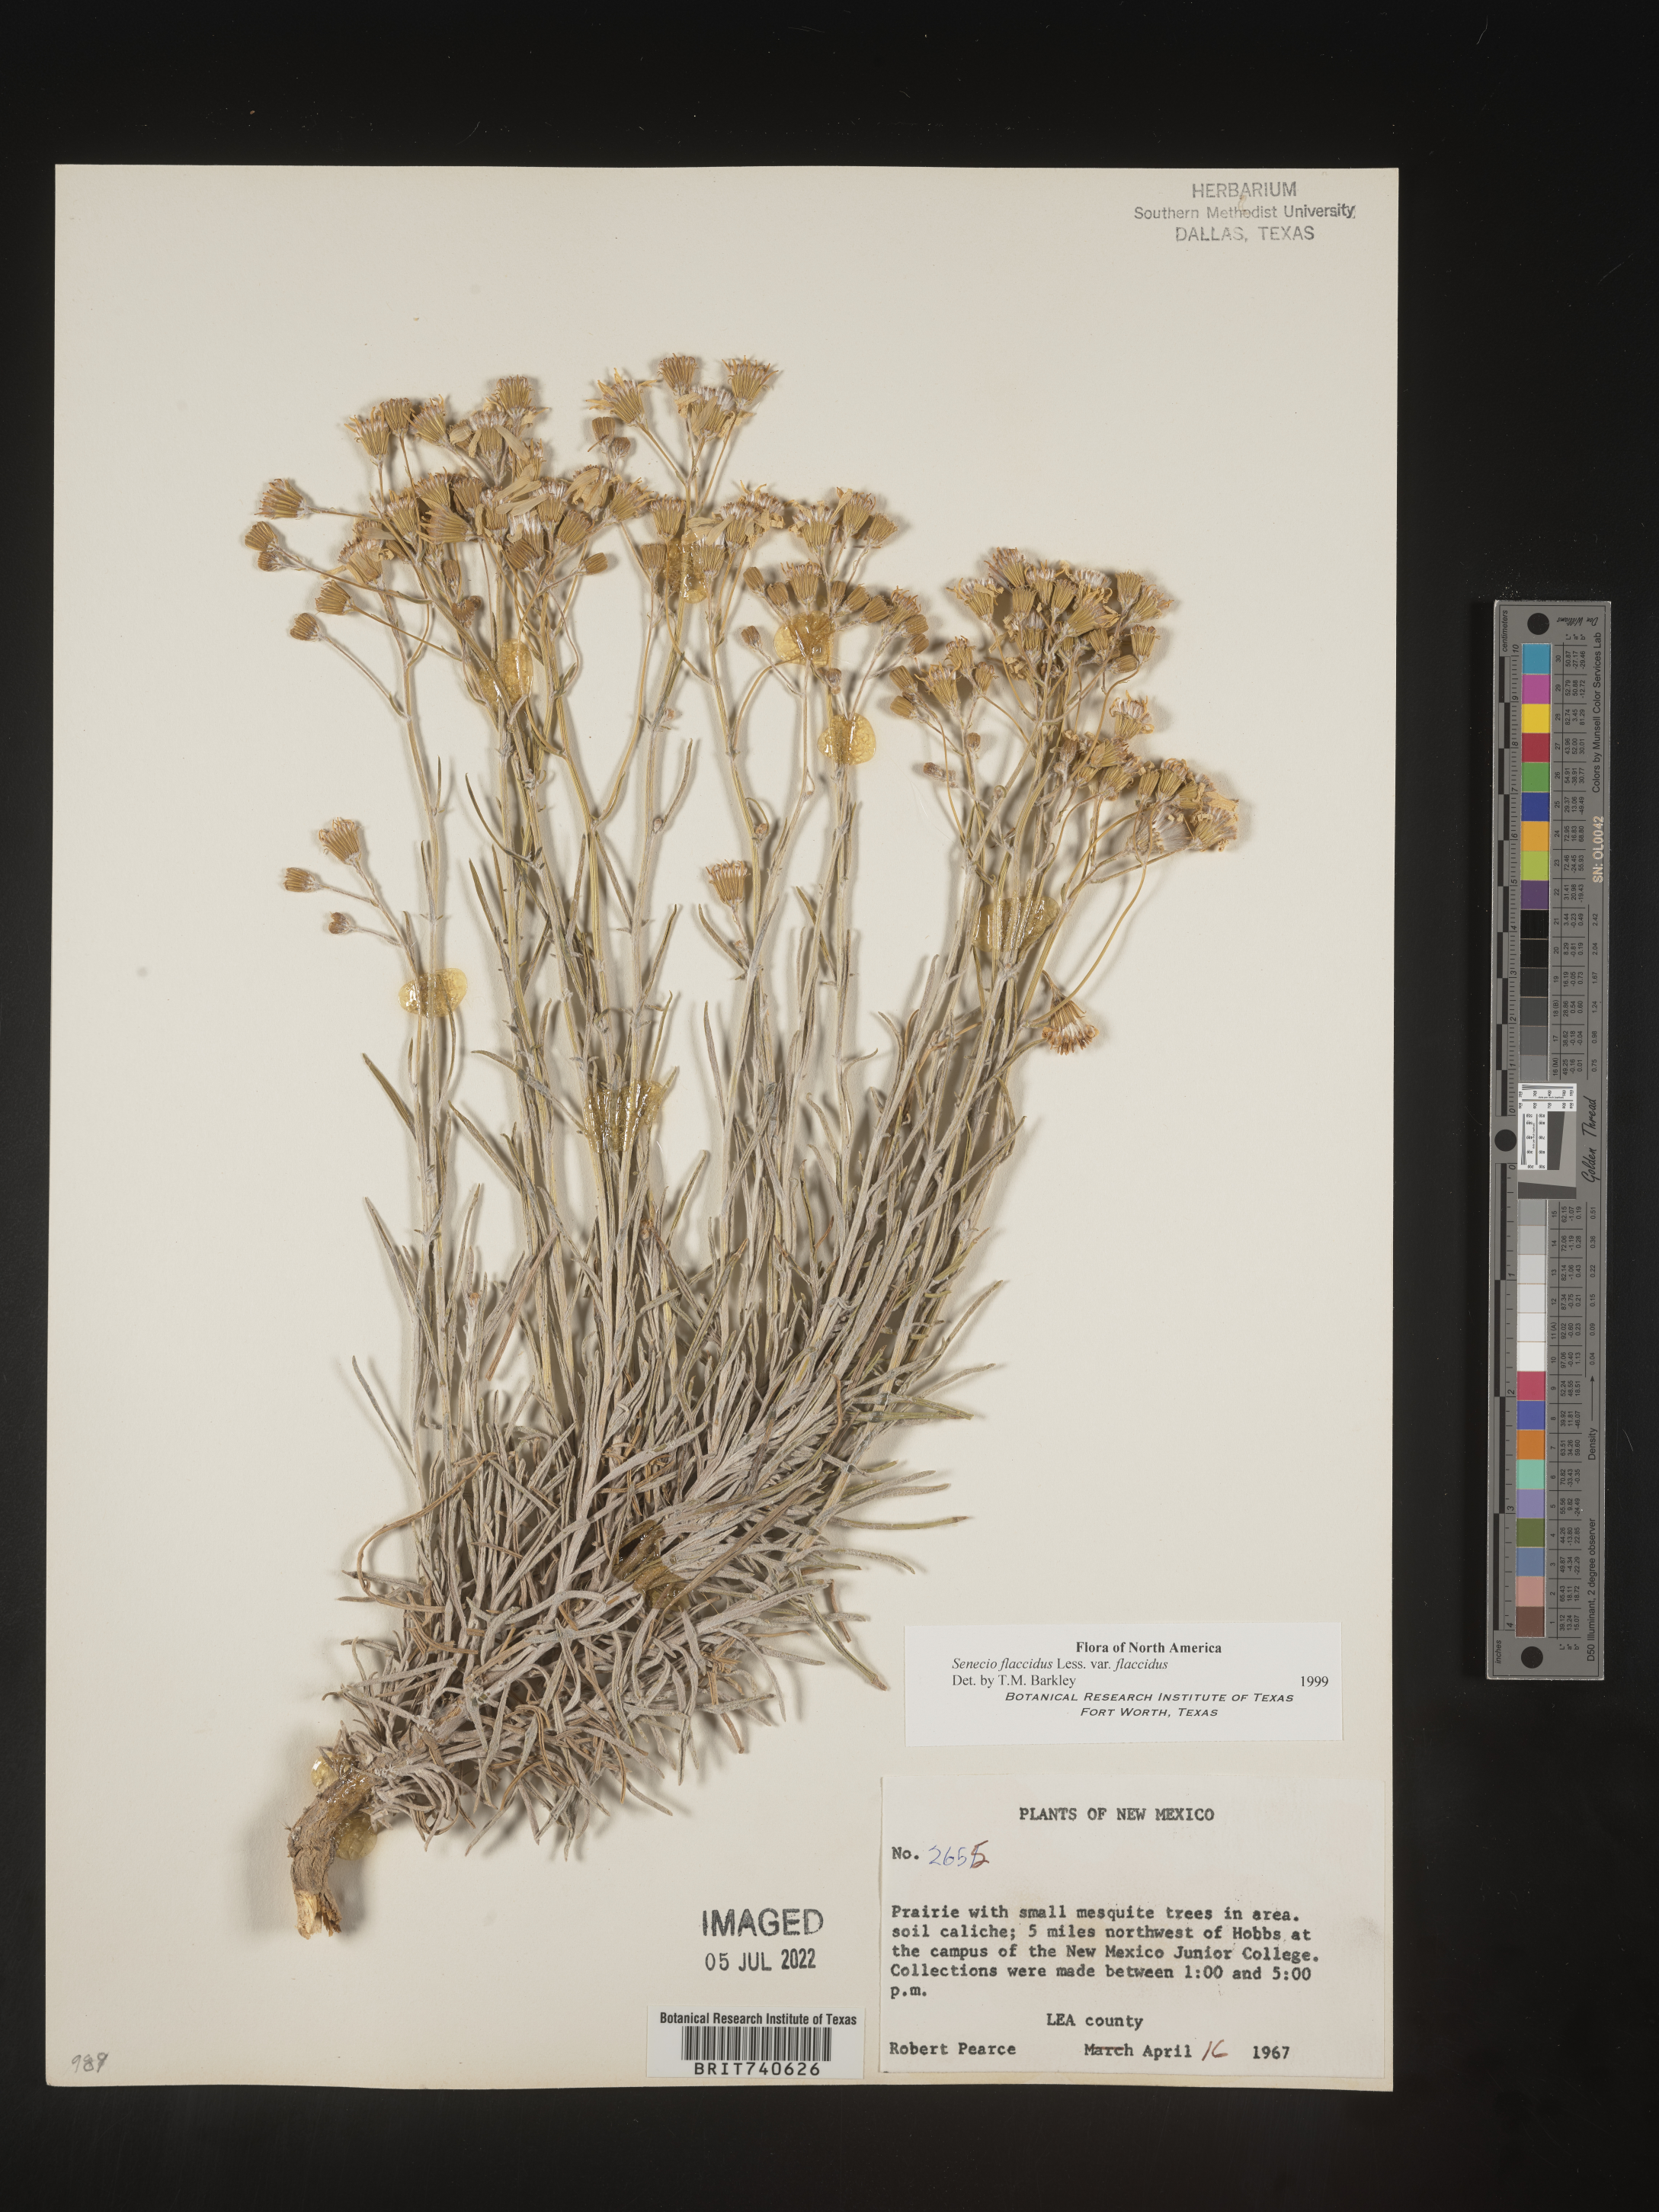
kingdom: Plantae
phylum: Tracheophyta
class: Magnoliopsida
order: Asterales
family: Asteraceae
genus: Senecio
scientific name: Senecio flaccidus
